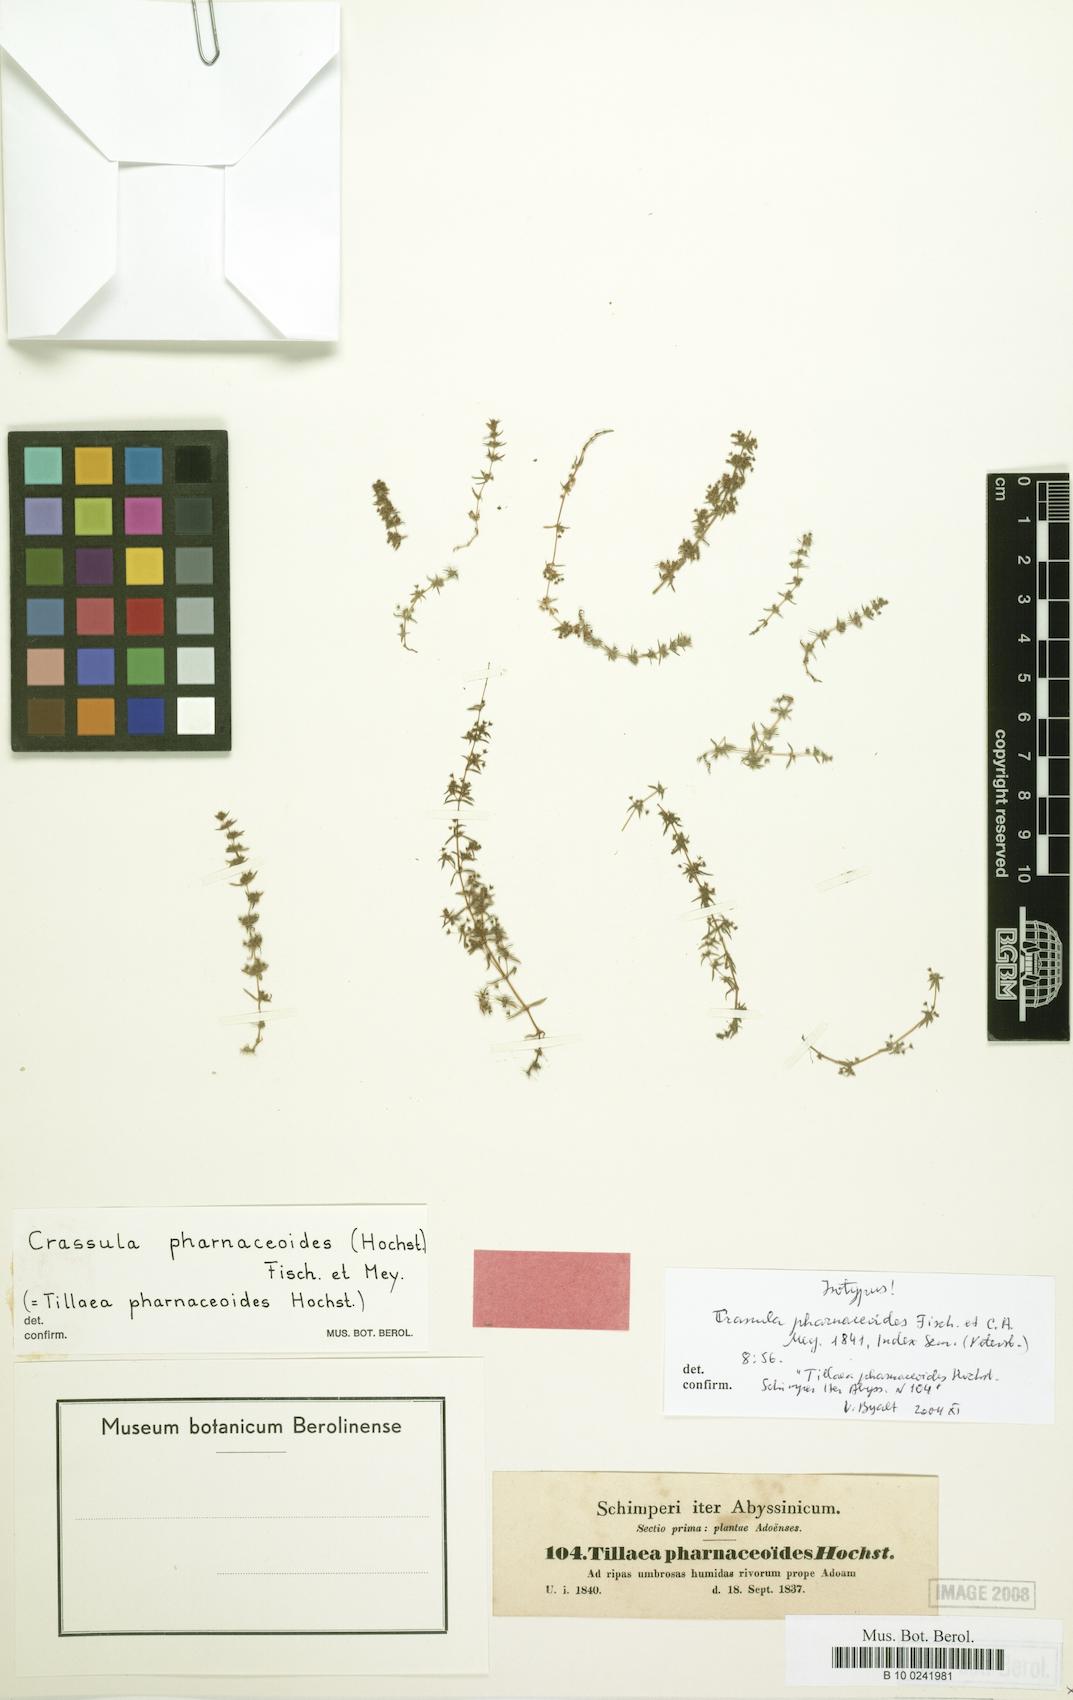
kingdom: Plantae
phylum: Tracheophyta
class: Magnoliopsida
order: Saxifragales
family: Crassulaceae
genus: Crassula
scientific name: Crassula alata
